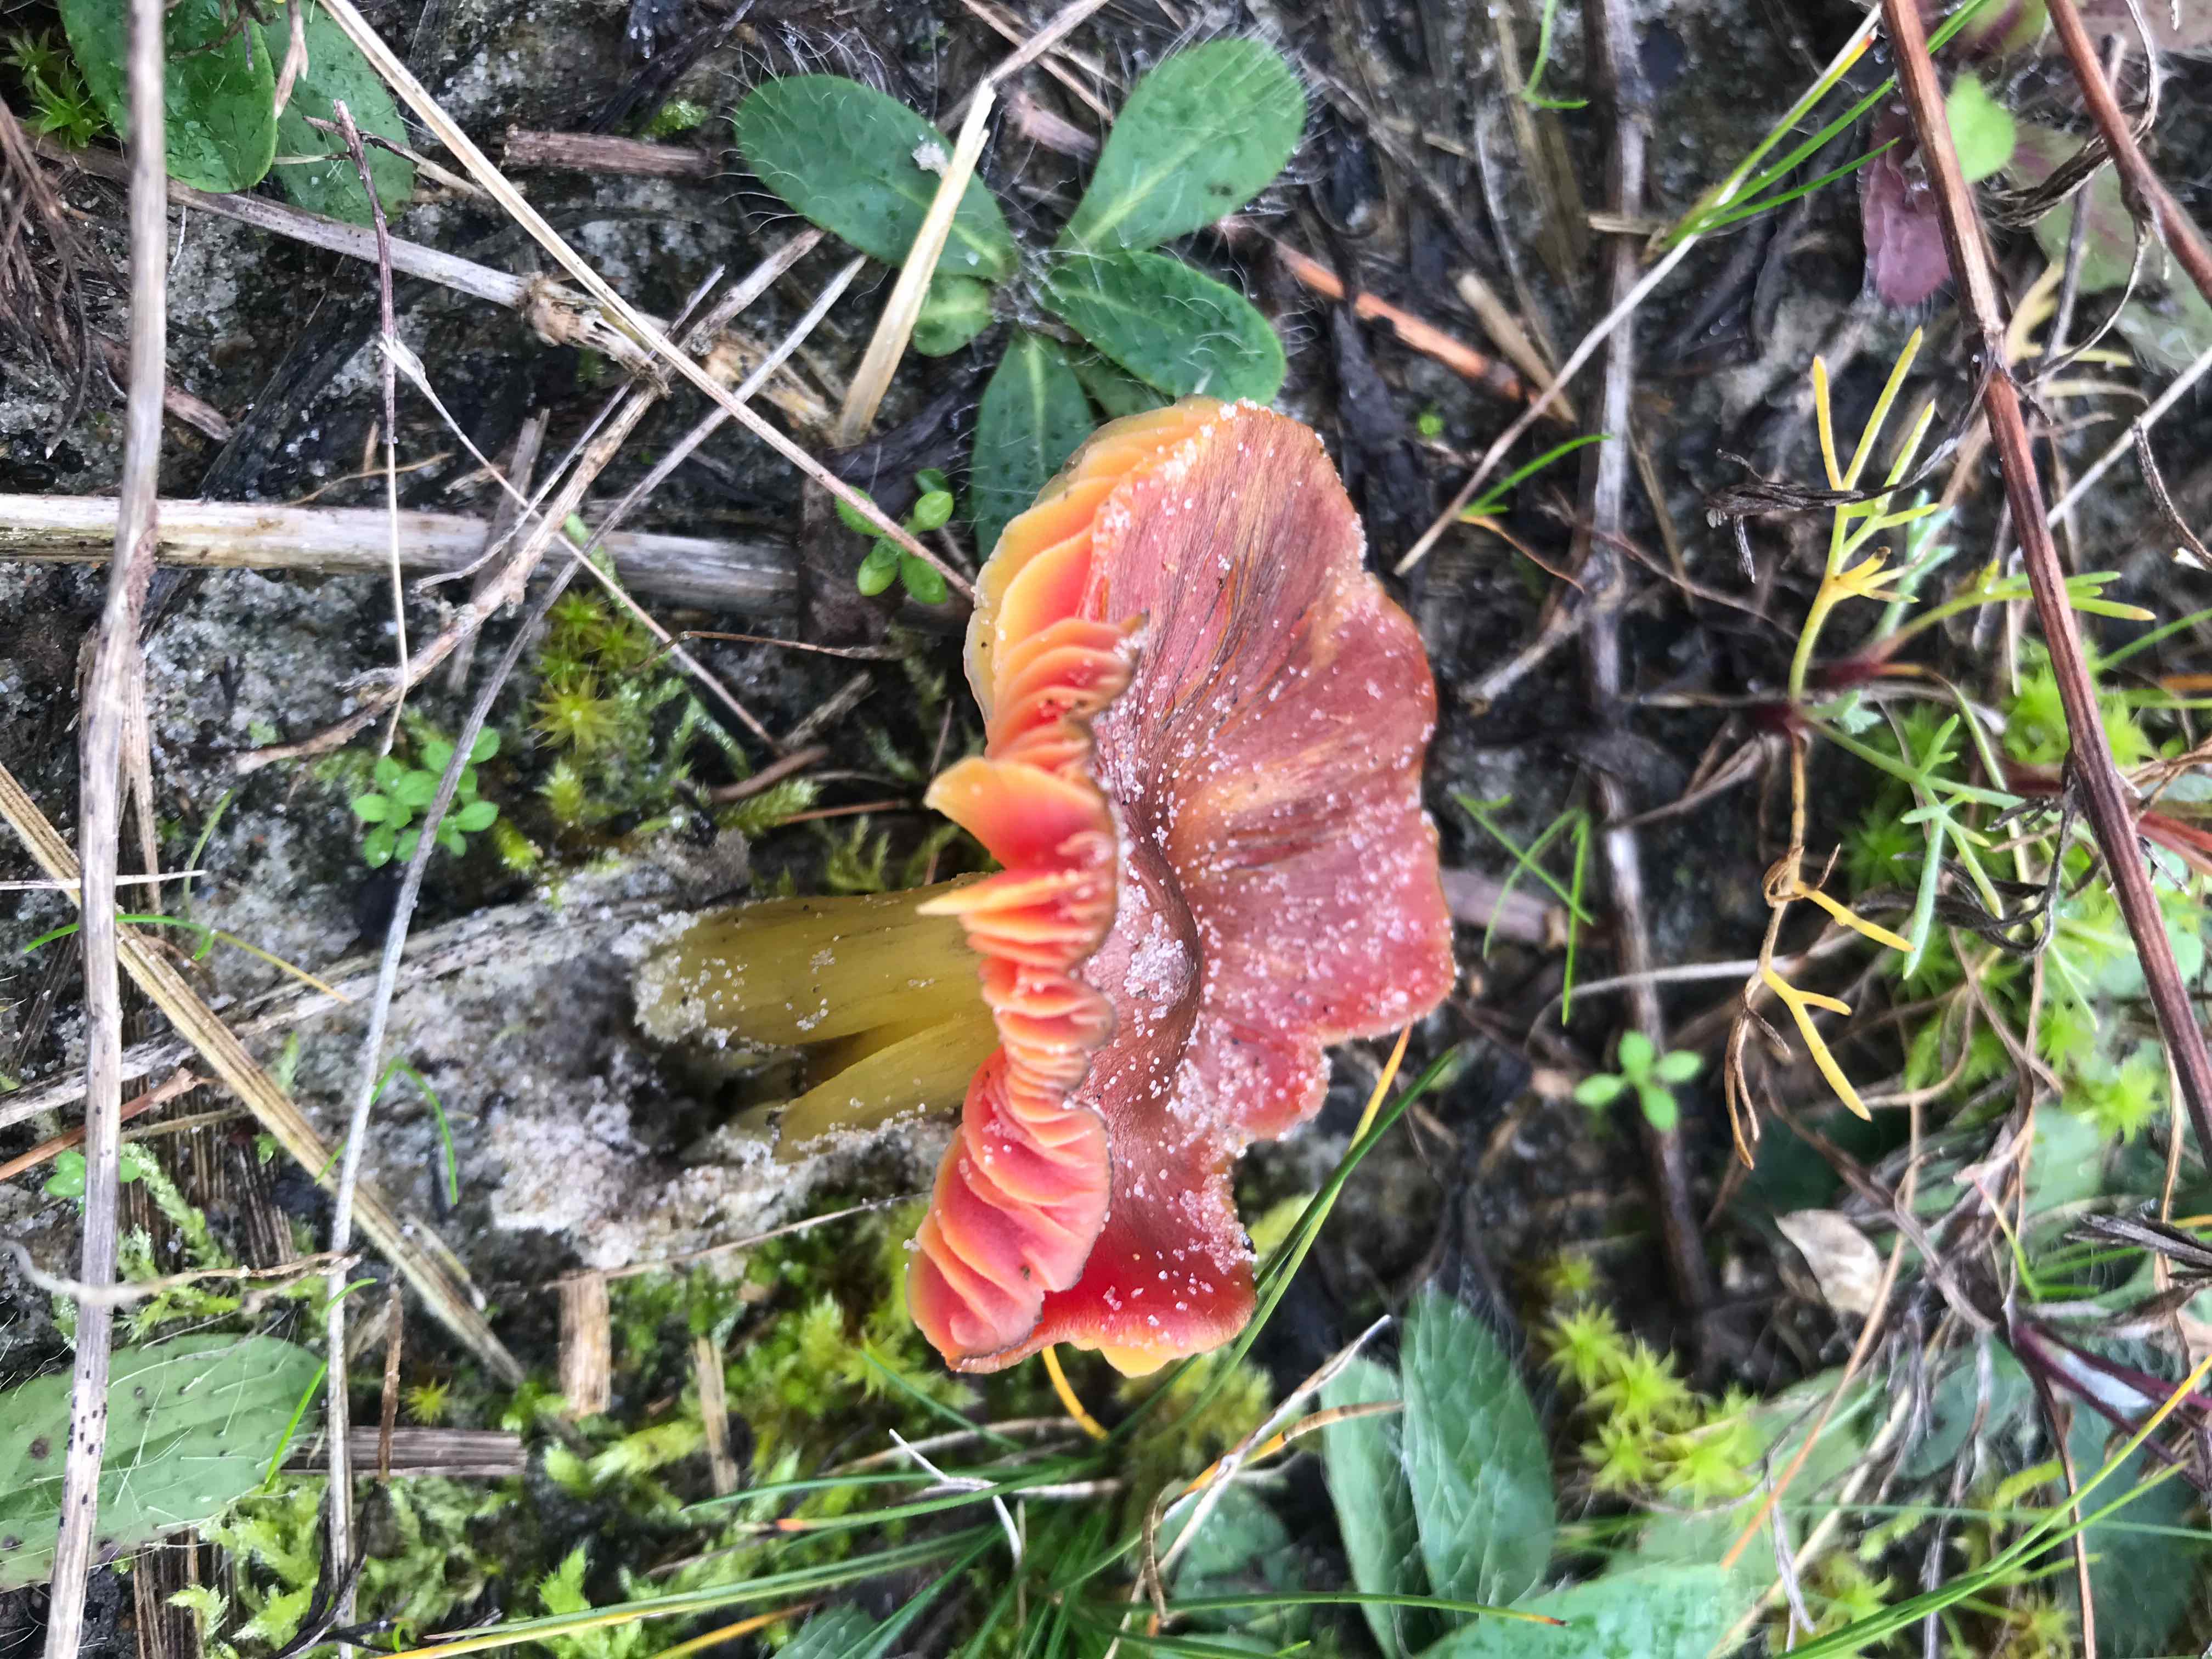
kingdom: Fungi
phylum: Basidiomycota
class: Agaricomycetes
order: Agaricales
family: Hygrophoraceae
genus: Hygrocybe
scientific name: Hygrocybe
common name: vokshat
